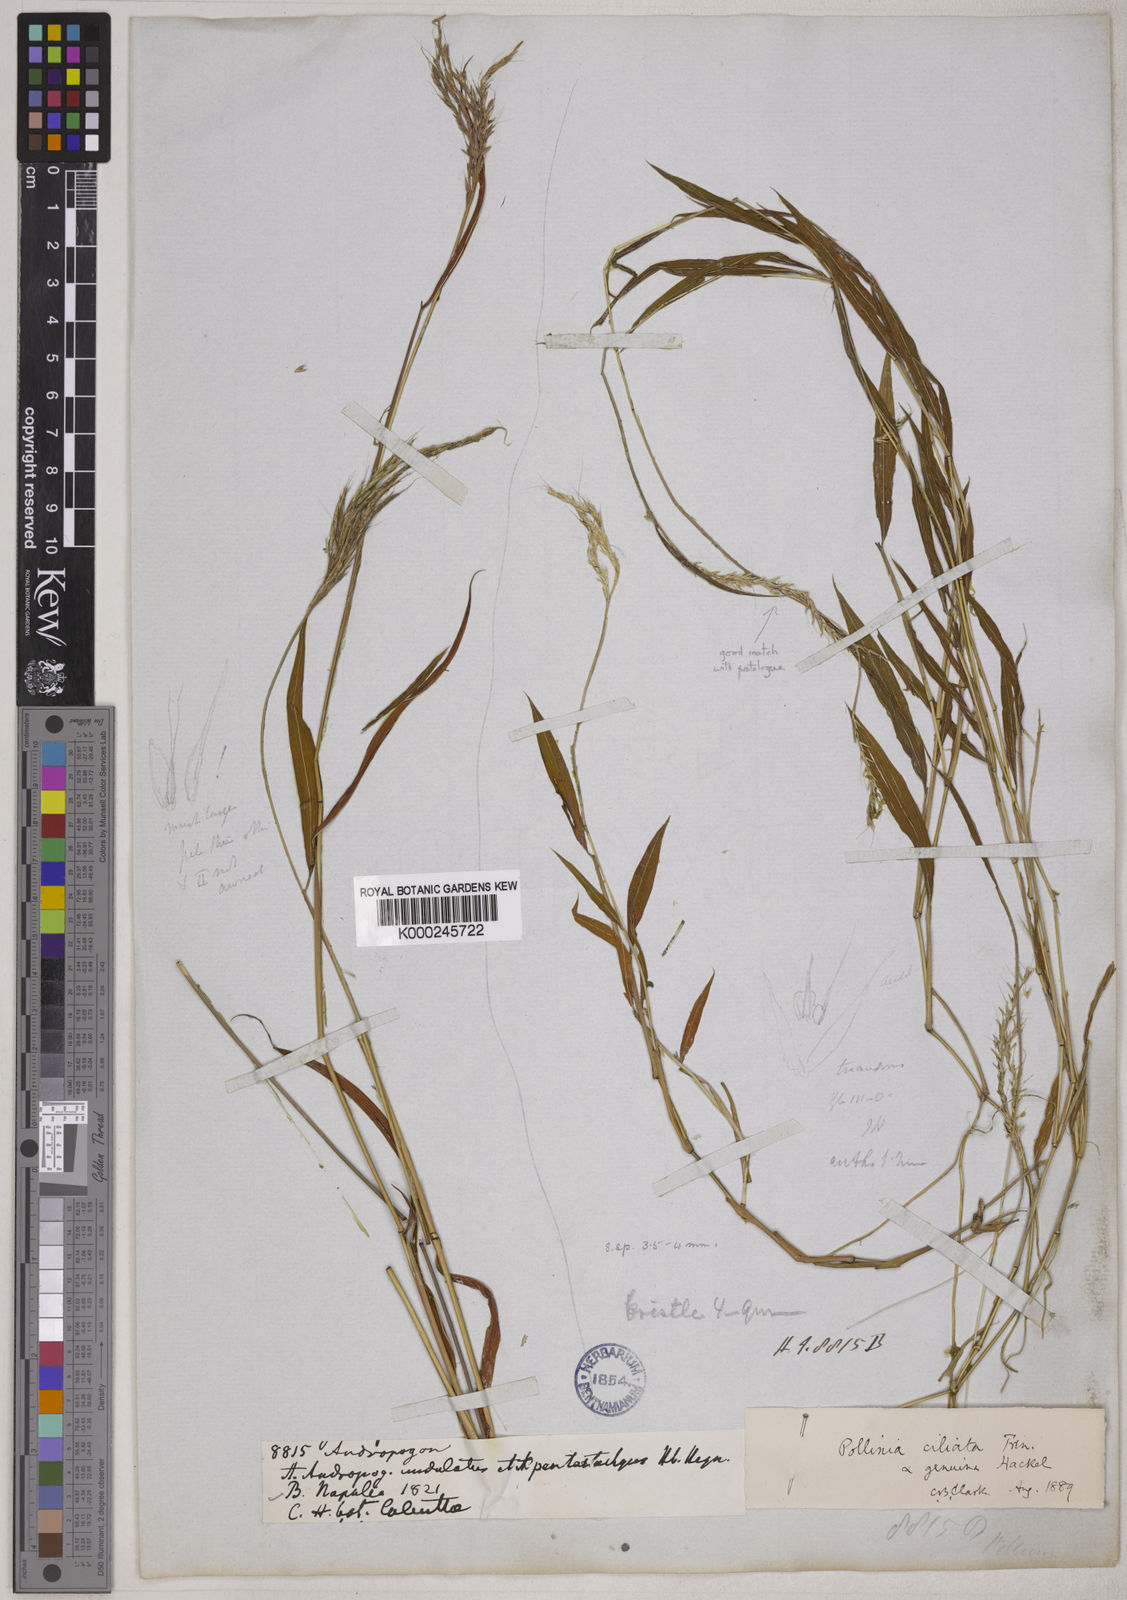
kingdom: Plantae
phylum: Tracheophyta
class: Liliopsida
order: Poales
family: Poaceae
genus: Microstegium
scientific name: Microstegium fasciculatum
